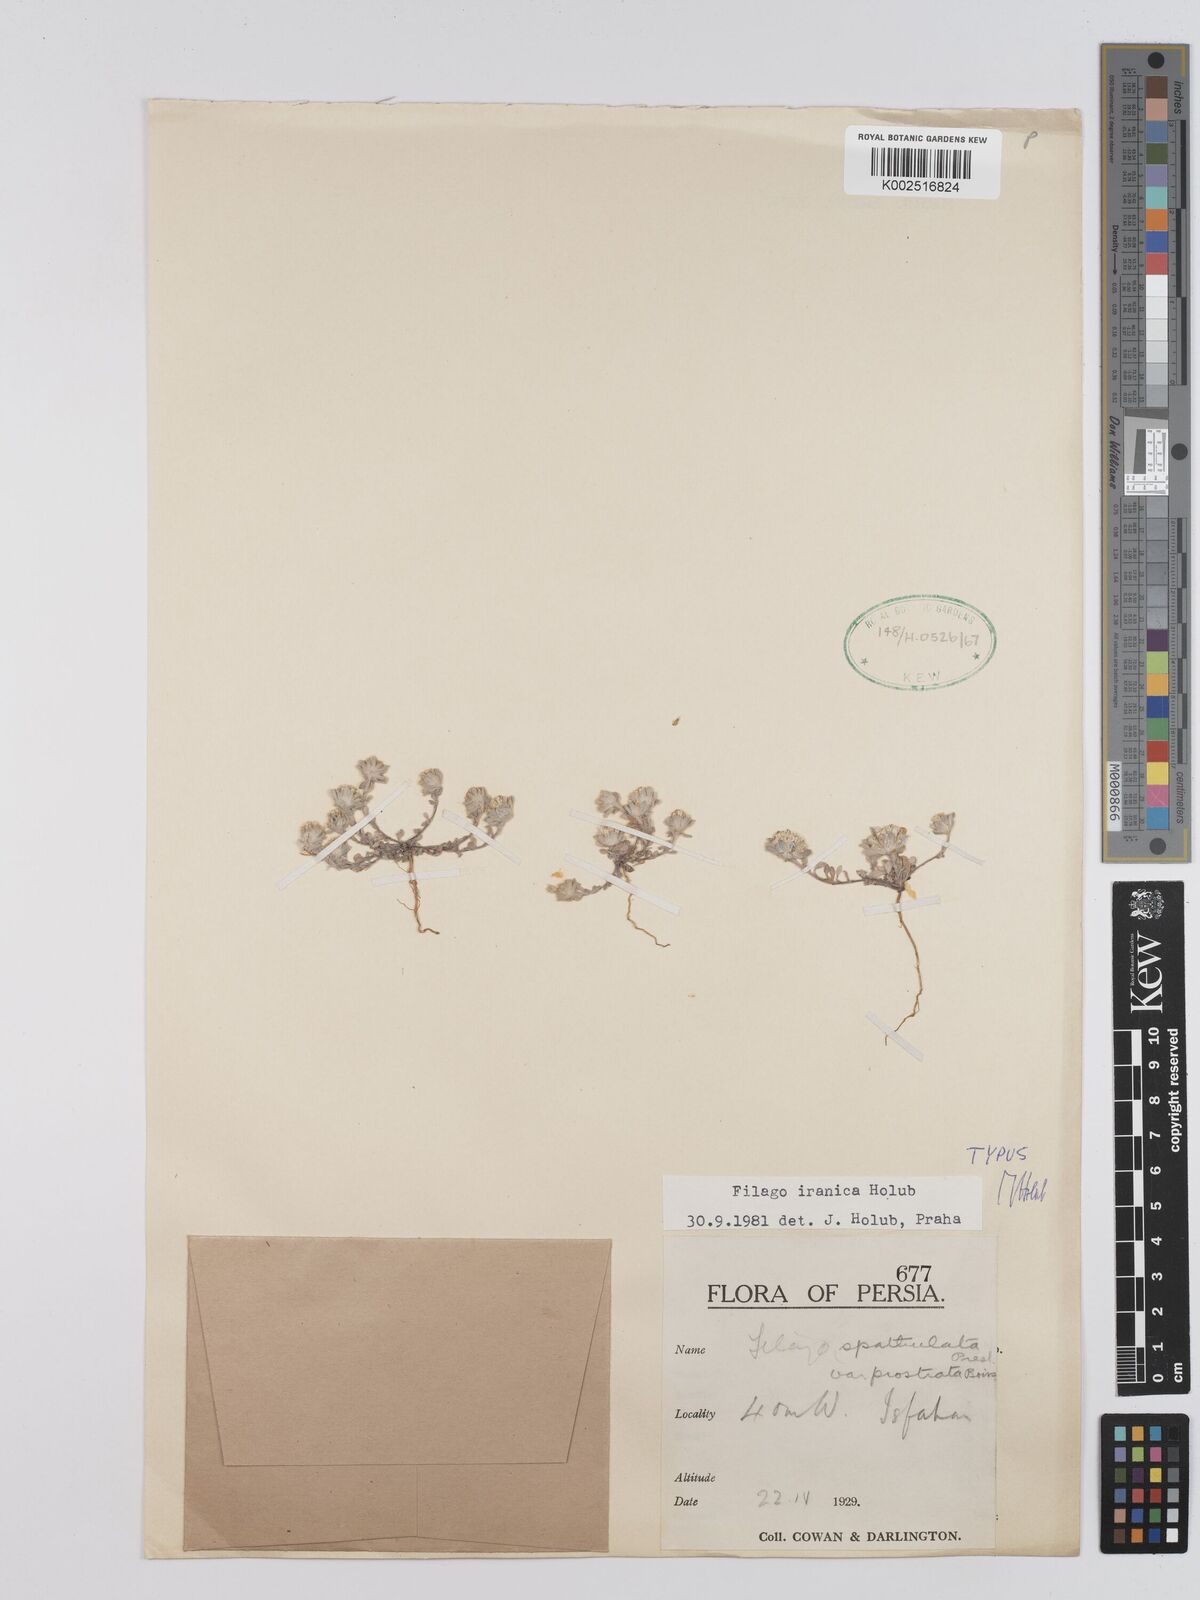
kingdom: Plantae
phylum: Tracheophyta
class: Magnoliopsida
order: Asterales
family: Asteraceae
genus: Filago
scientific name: Filago
